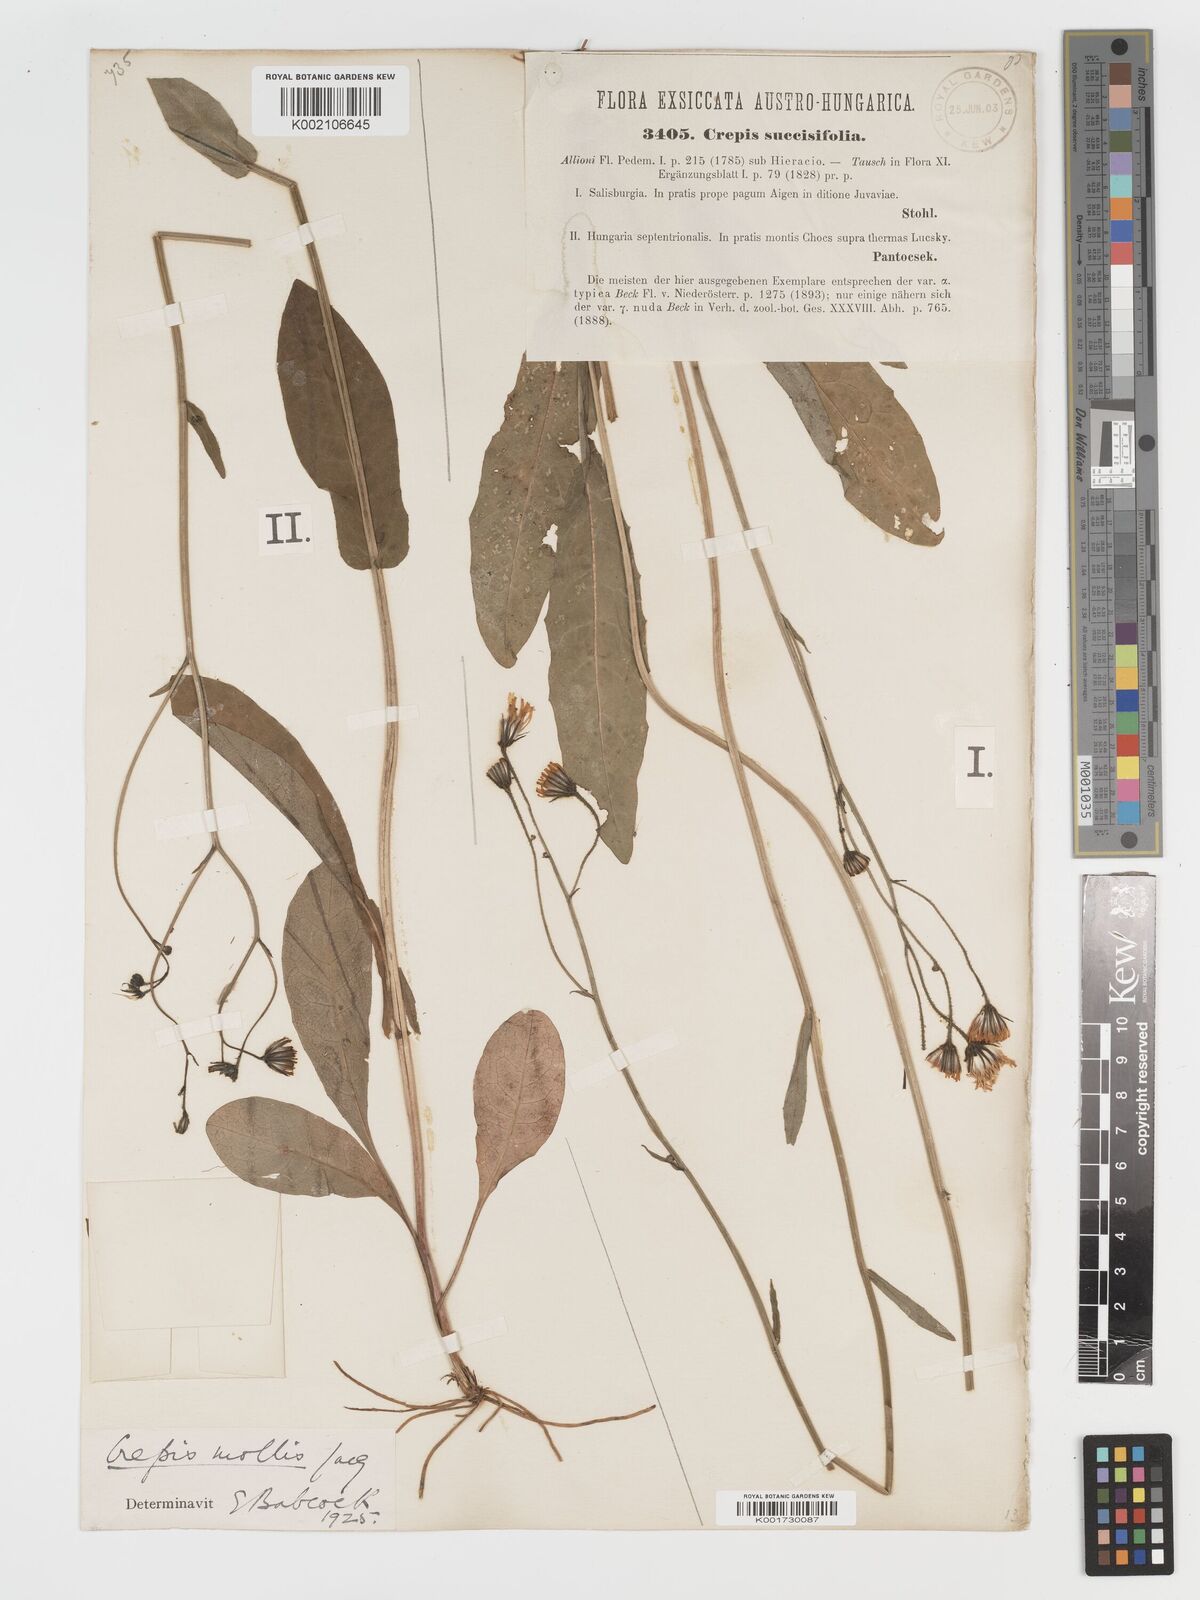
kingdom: Plantae
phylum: Tracheophyta
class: Magnoliopsida
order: Asterales
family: Asteraceae
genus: Crepis
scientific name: Crepis mollis
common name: Northern hawk's-beard
